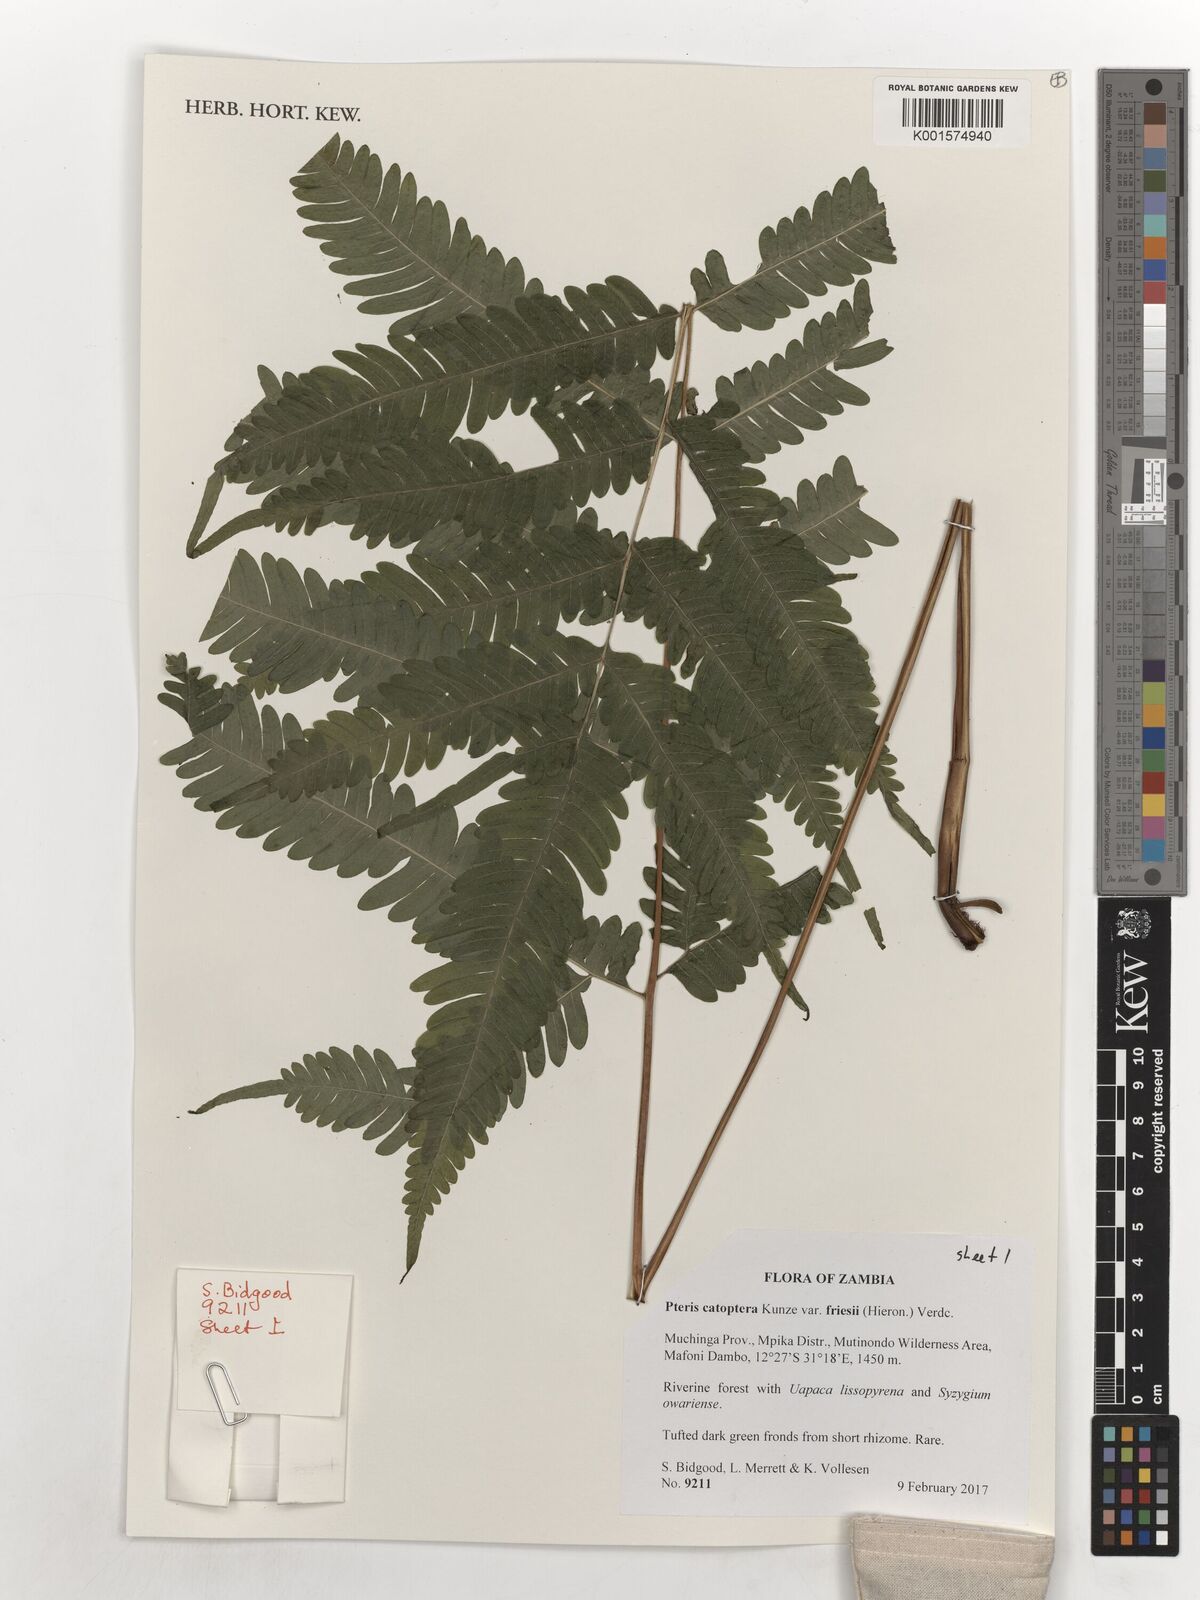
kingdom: Plantae
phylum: Tracheophyta
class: Polypodiopsida
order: Polypodiales
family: Pteridaceae
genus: Pteris
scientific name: Pteris friesii
